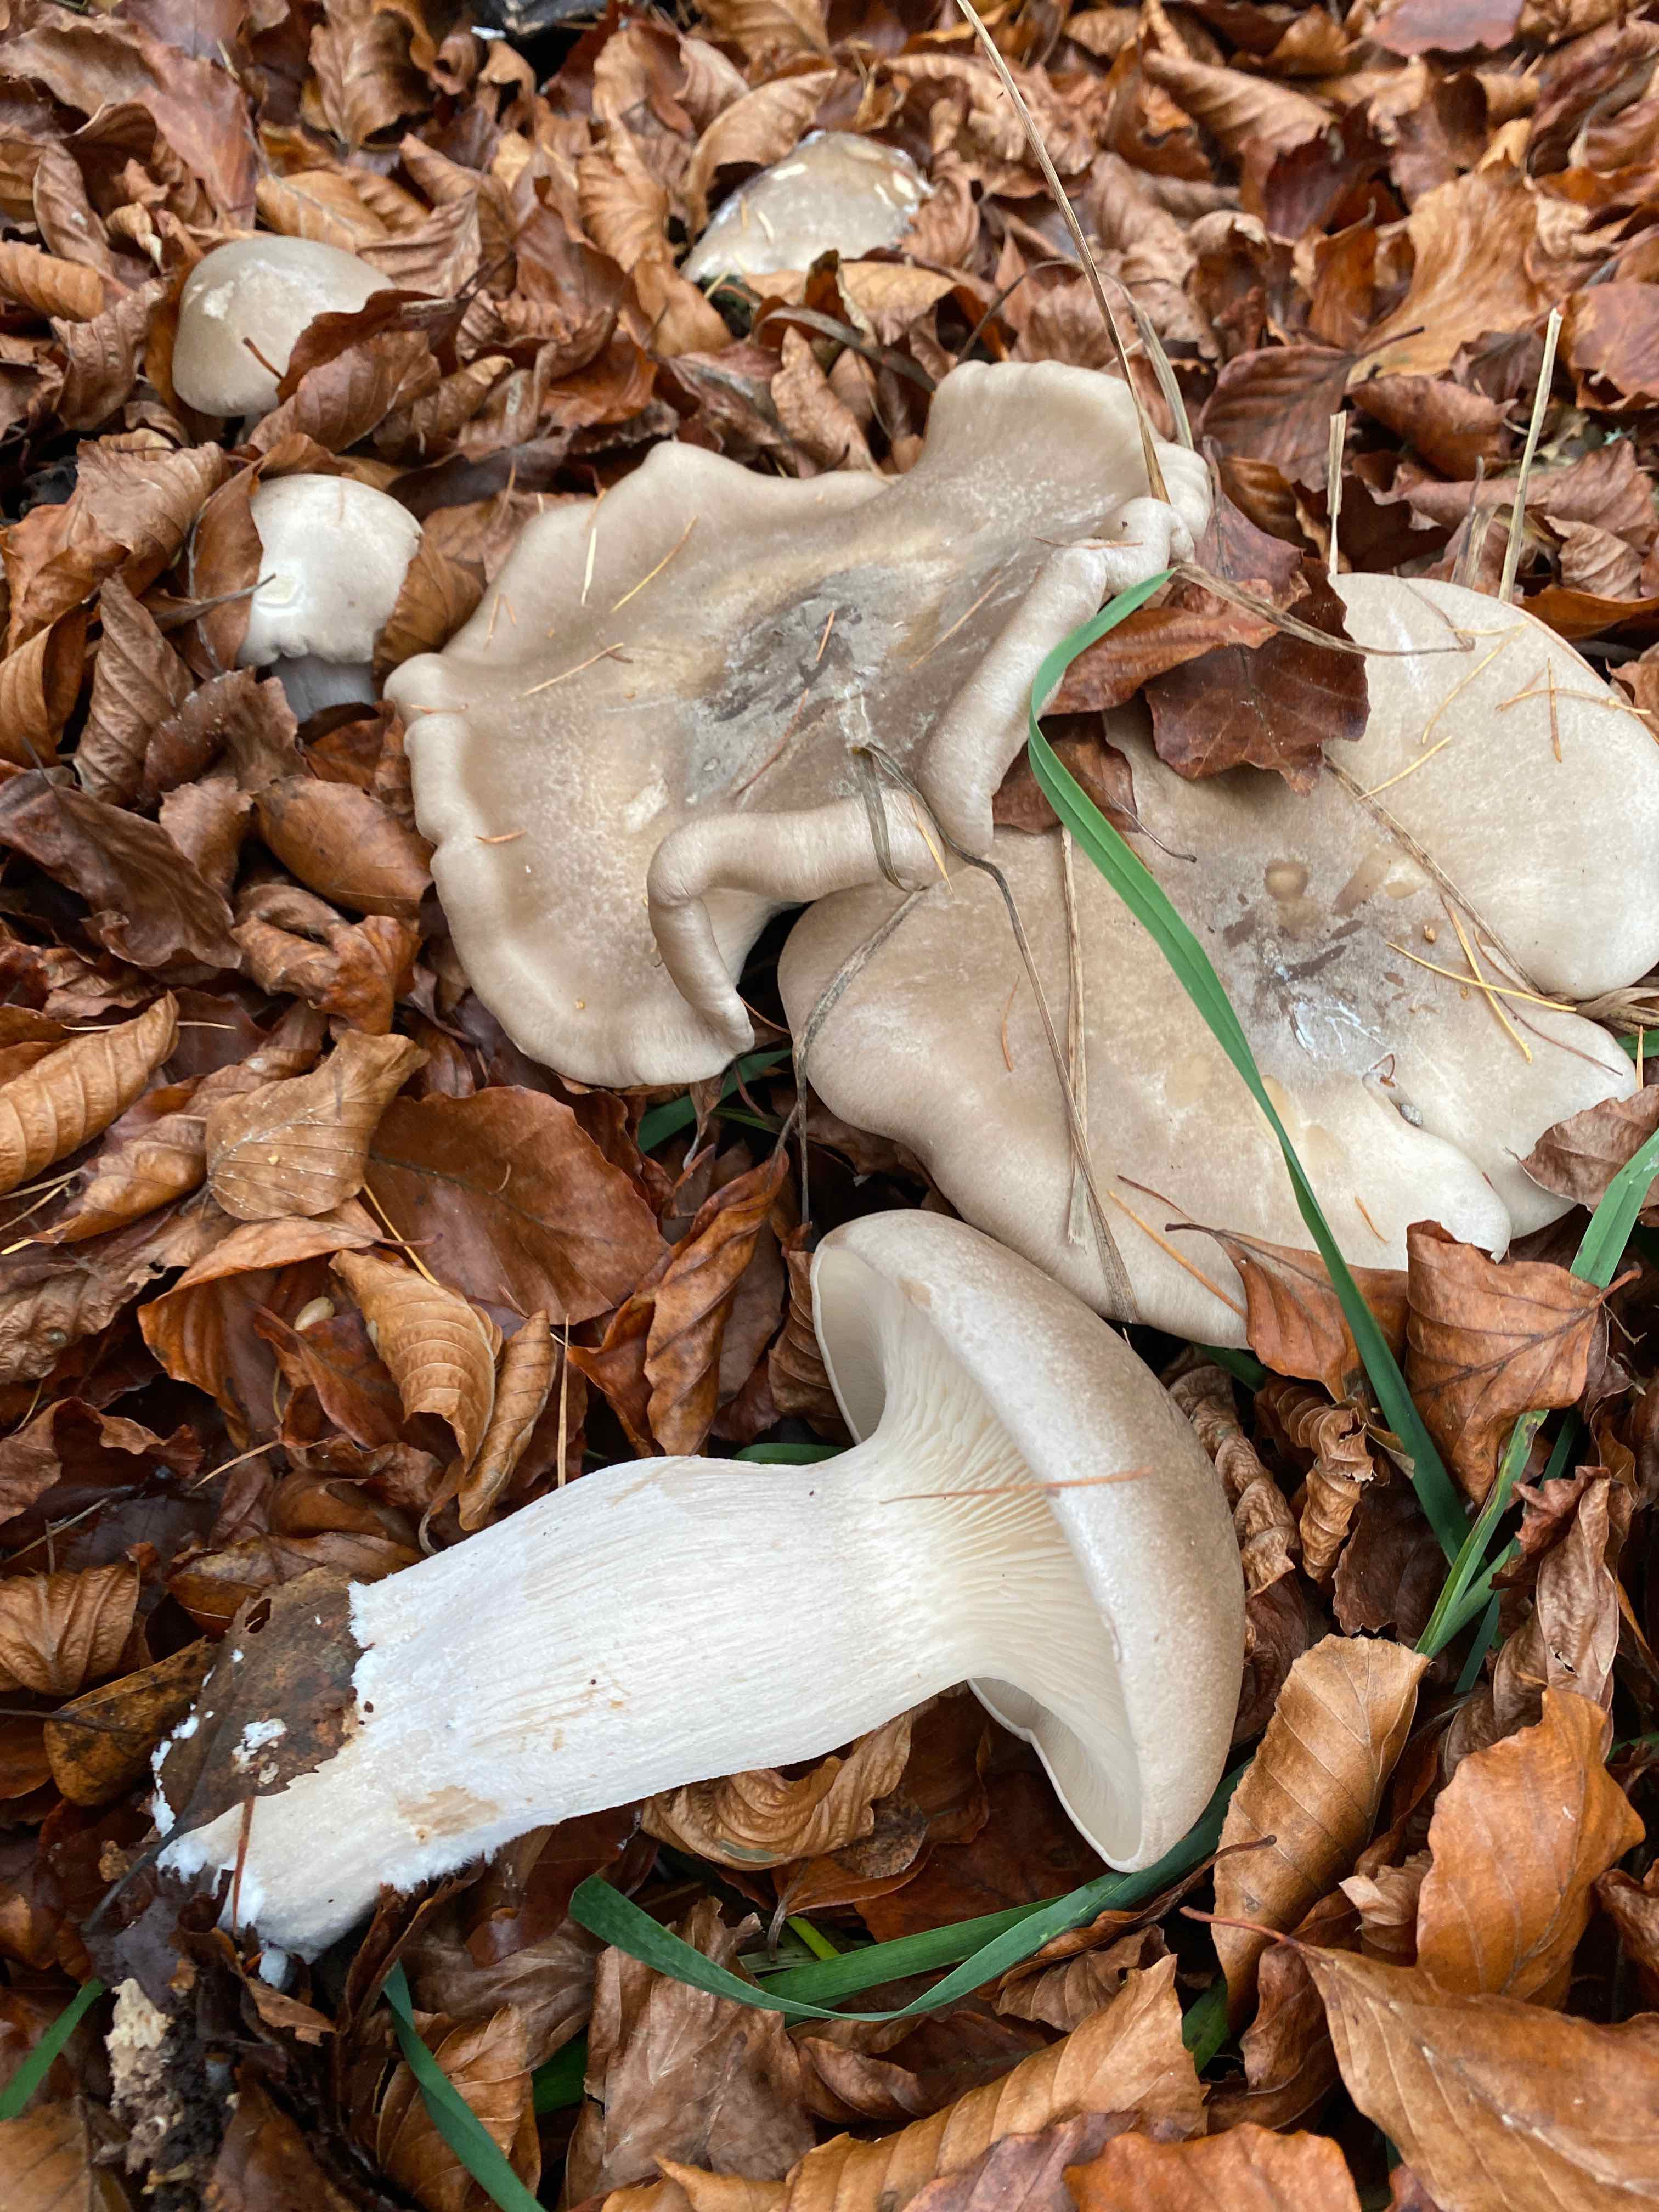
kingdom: Fungi
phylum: Basidiomycota
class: Agaricomycetes
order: Agaricales
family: Tricholomataceae
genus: Clitocybe
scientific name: Clitocybe nebularis
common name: tåge-tragthat
